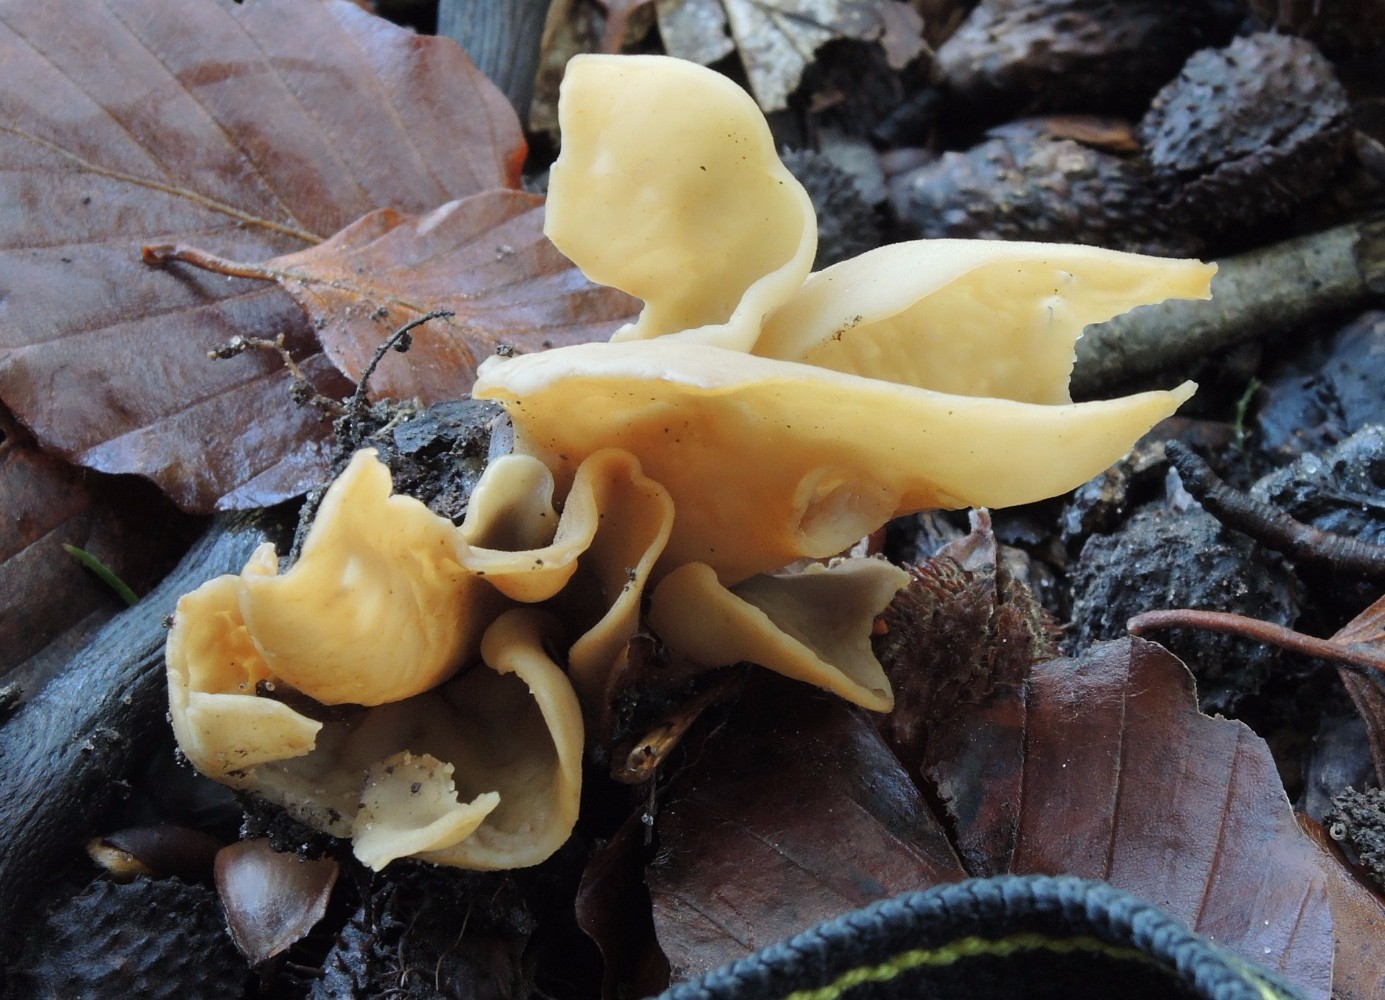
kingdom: Fungi
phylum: Ascomycota
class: Pezizomycetes
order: Pezizales
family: Otideaceae
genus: Otidea
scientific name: Otidea alutacea
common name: læder-ørebæger
